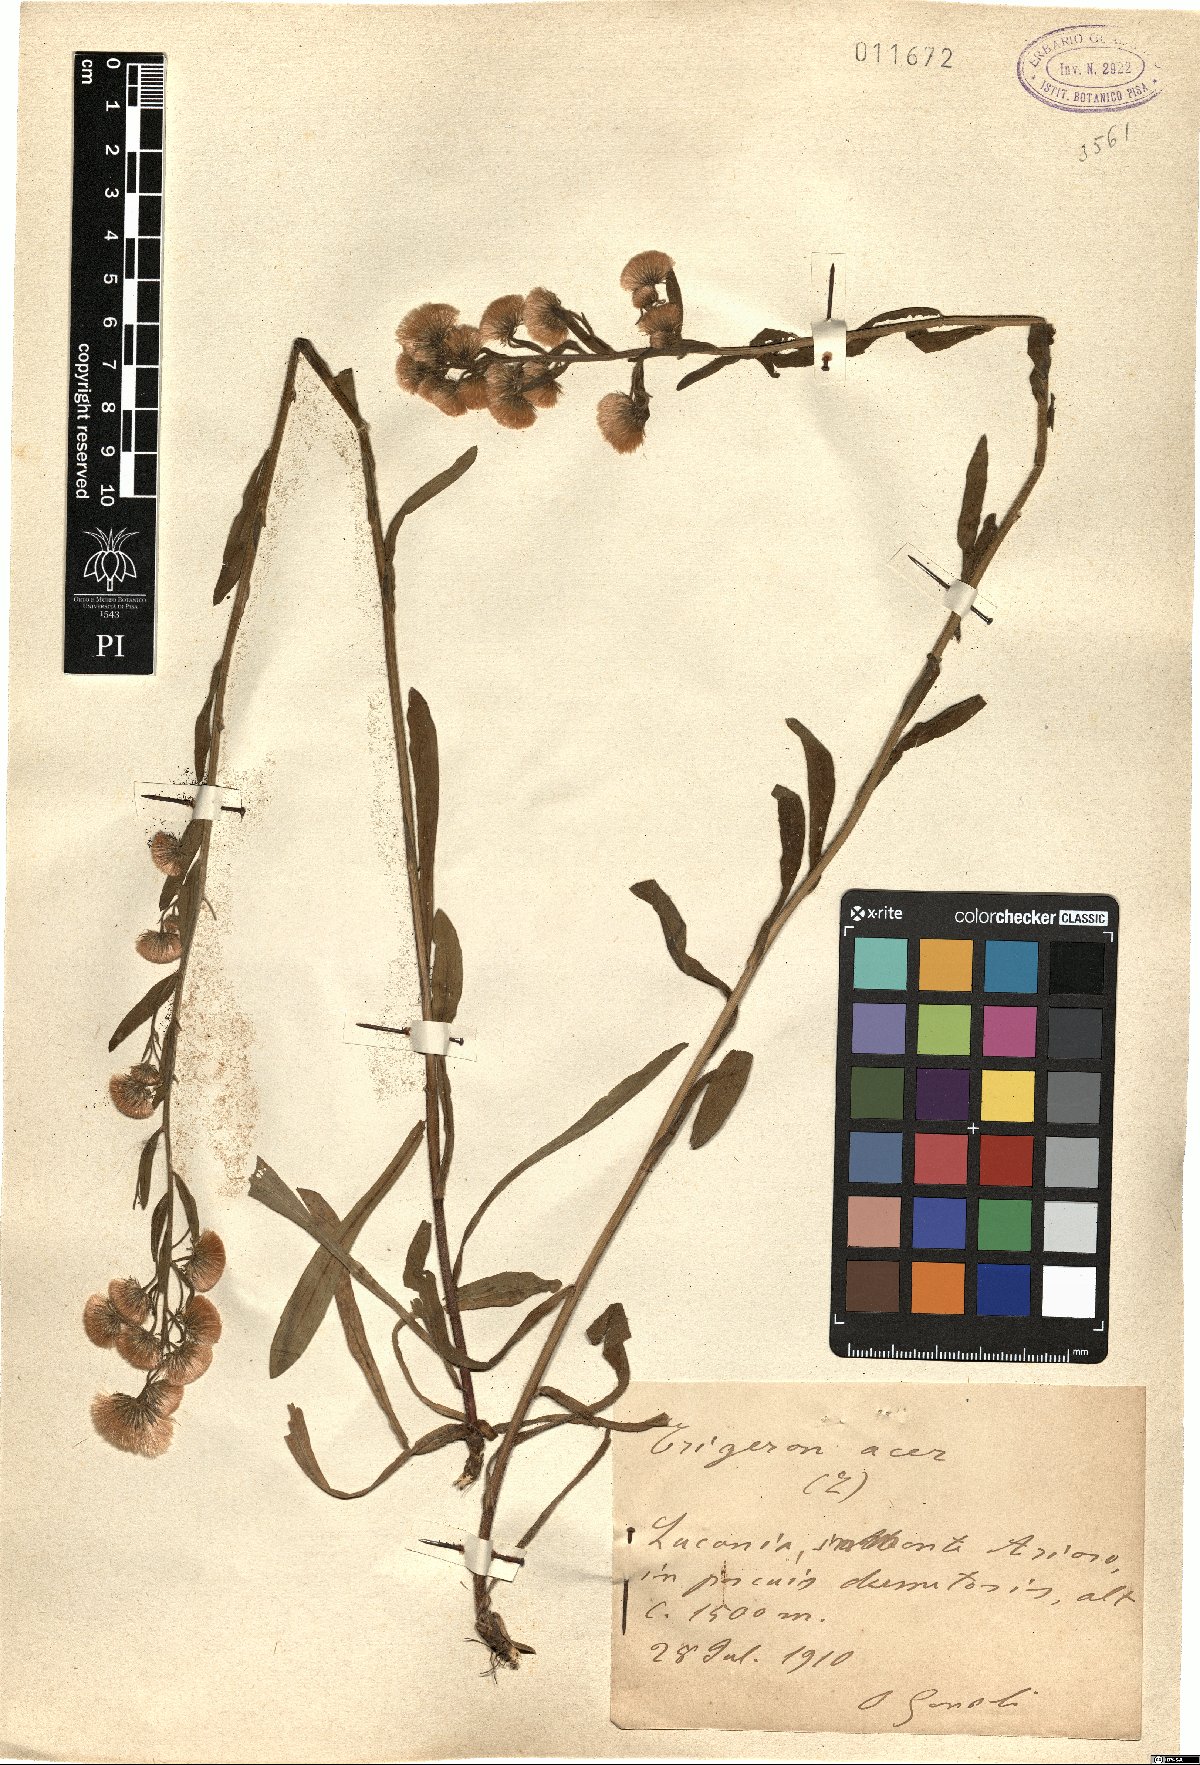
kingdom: Plantae
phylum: Tracheophyta
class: Magnoliopsida
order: Asterales
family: Asteraceae
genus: Erigeron
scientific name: Erigeron acer
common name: Blue fleabane
